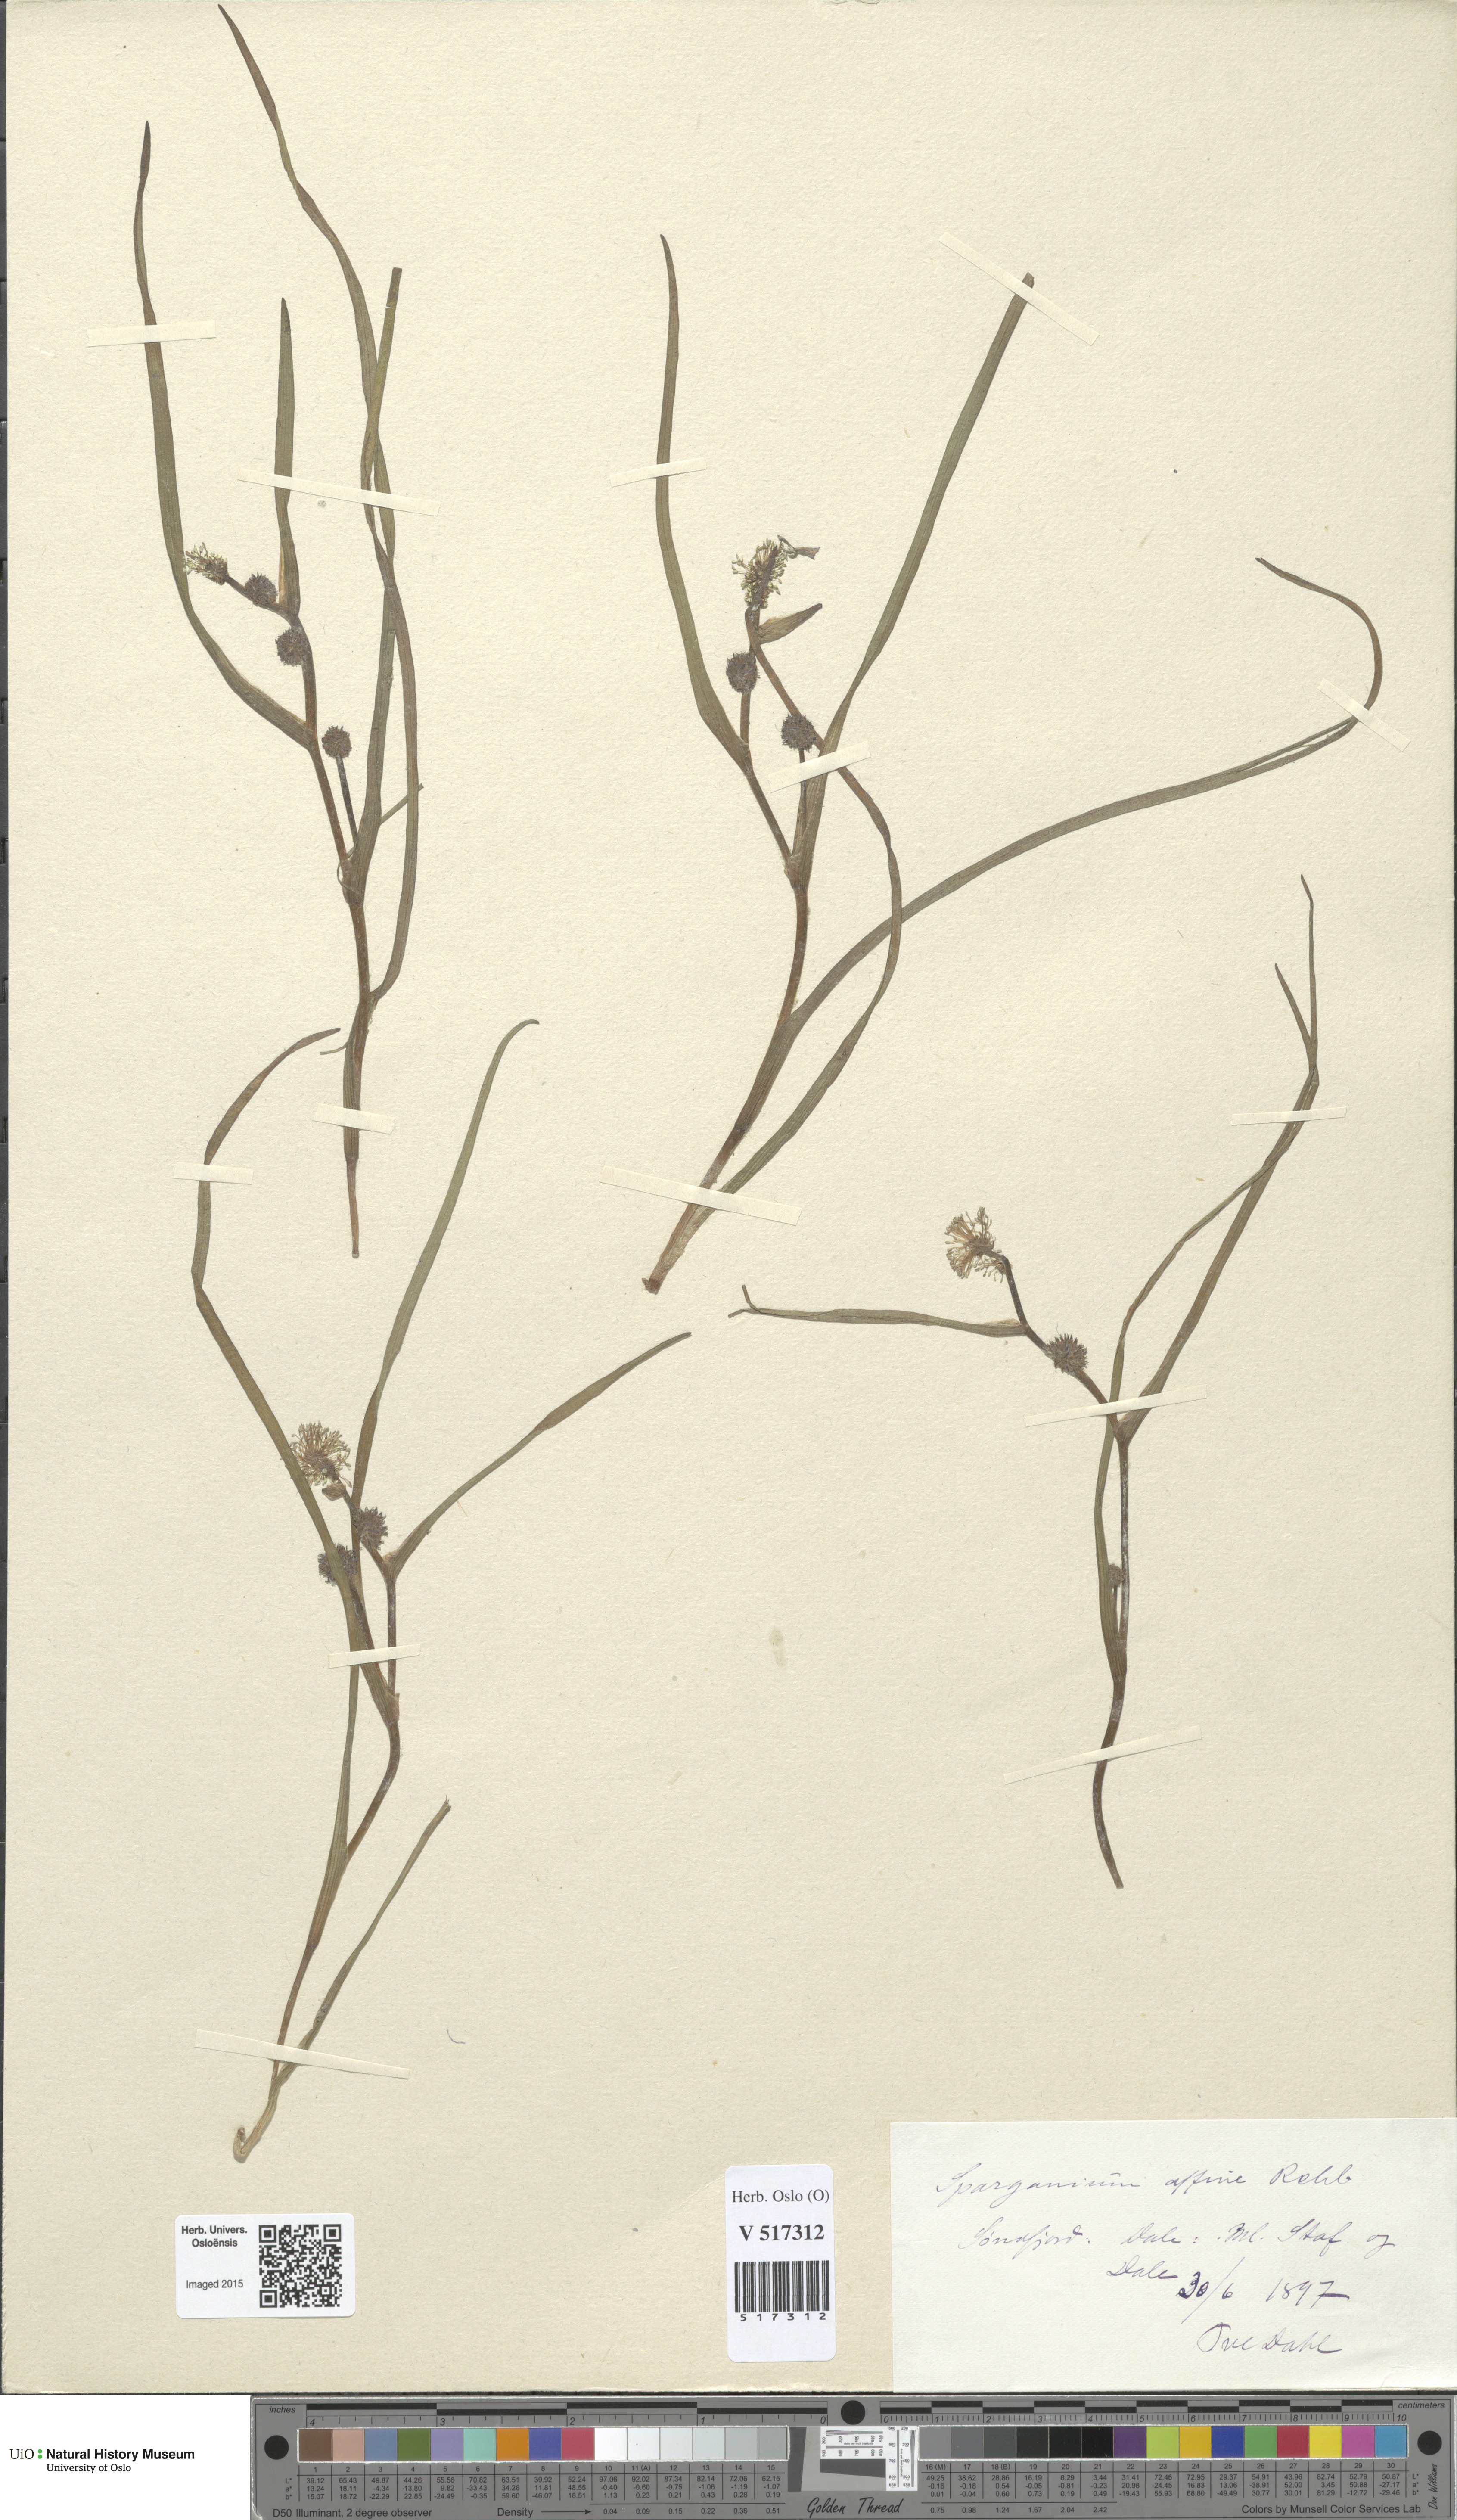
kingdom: Plantae
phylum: Tracheophyta
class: Liliopsida
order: Poales
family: Typhaceae
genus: Sparganium
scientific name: Sparganium angustifolium
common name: Floating bur-reed
